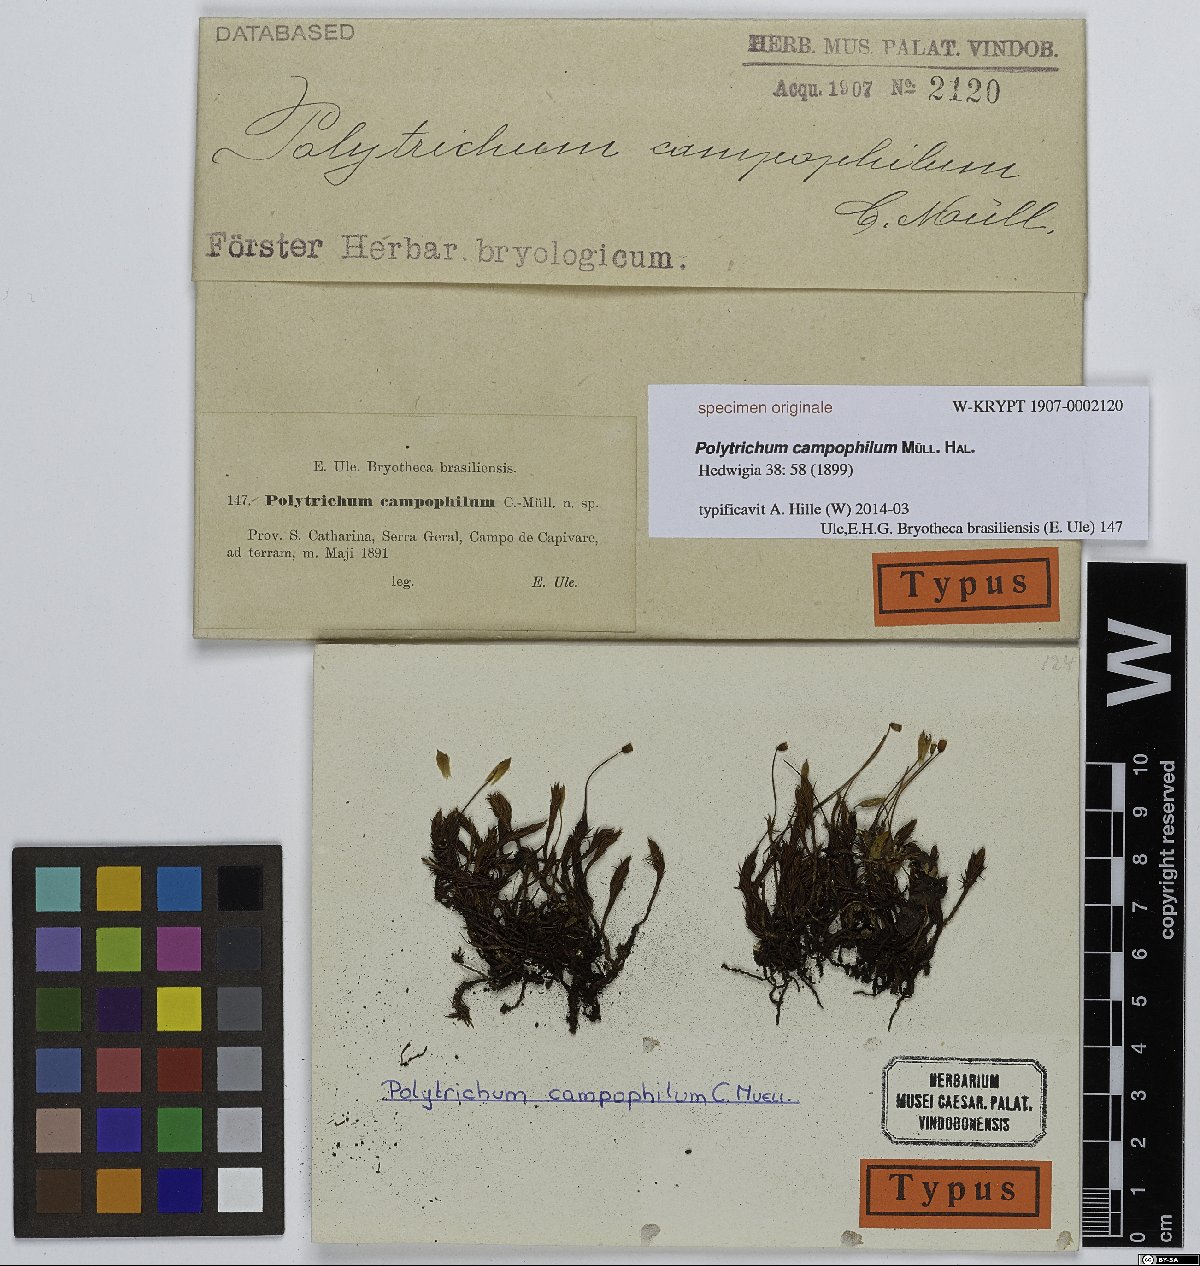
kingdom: Plantae
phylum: Bryophyta
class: Polytrichopsida
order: Polytrichales
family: Polytrichaceae
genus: Pogonatum
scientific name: Pogonatum pensilvanicum
